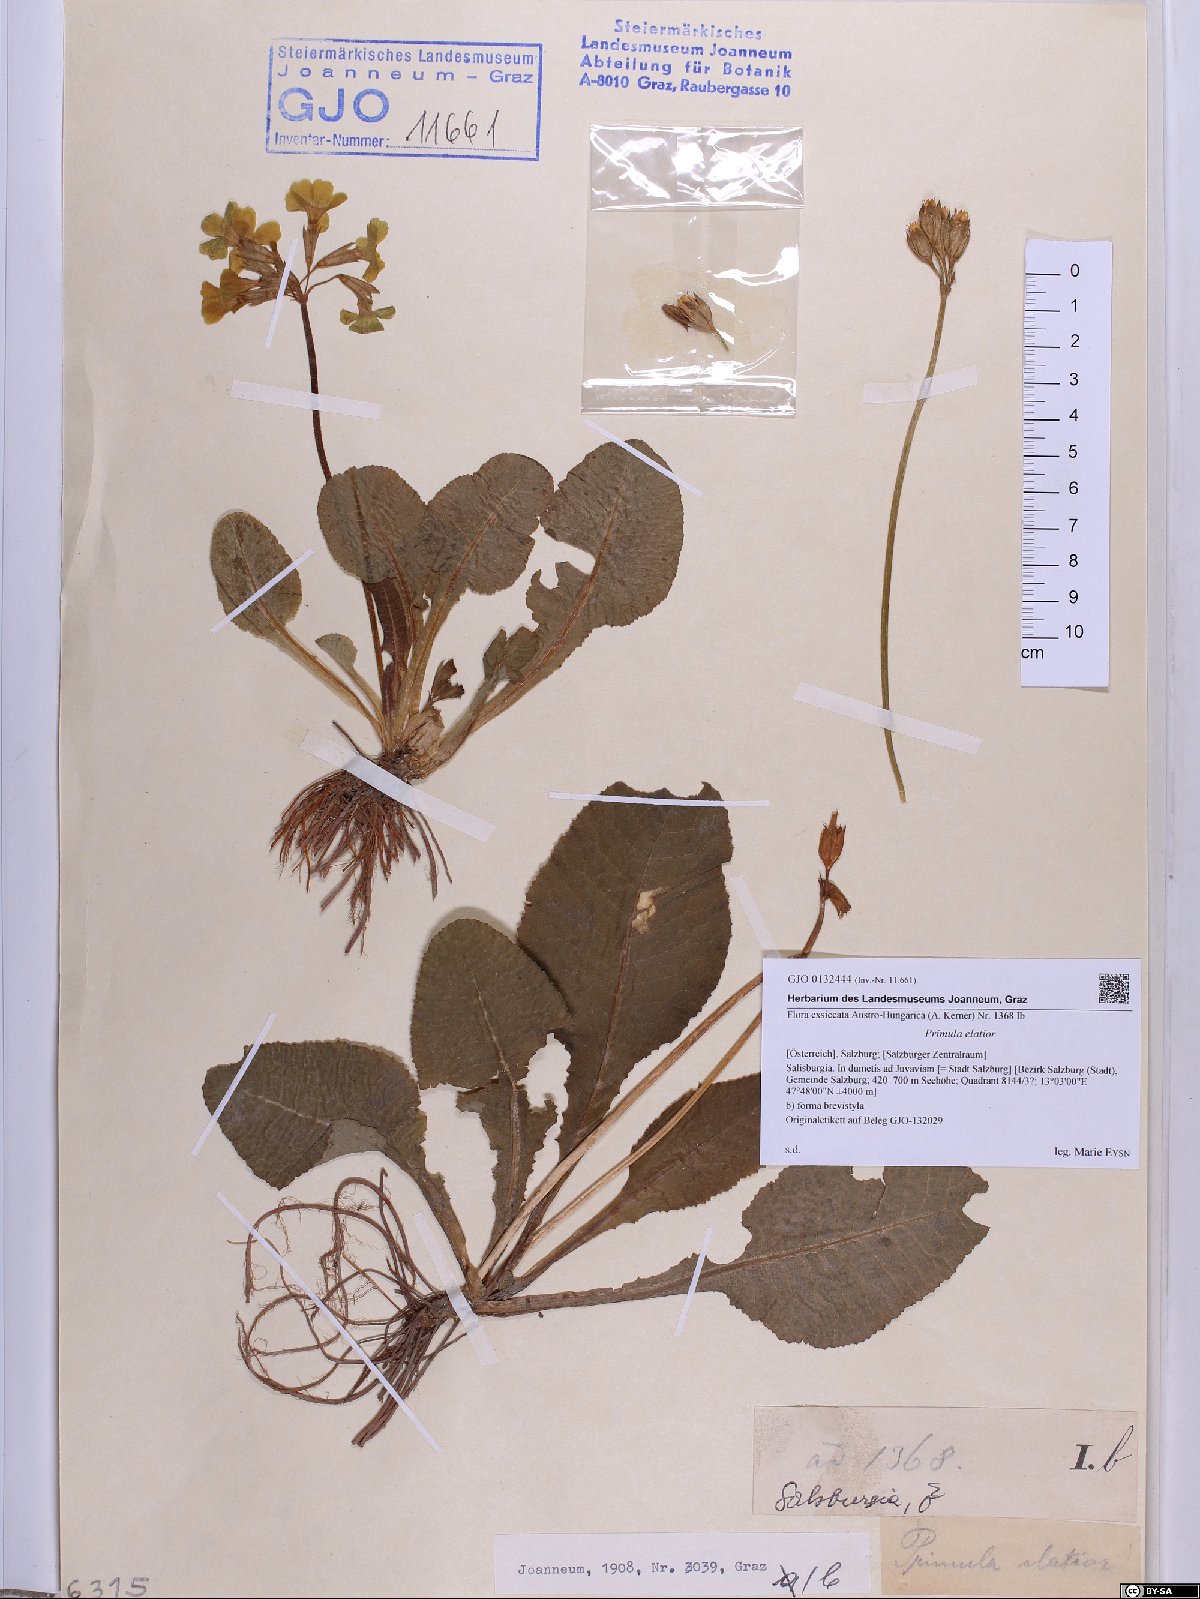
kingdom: Plantae
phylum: Tracheophyta
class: Magnoliopsida
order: Ericales
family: Primulaceae
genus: Primula
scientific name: Primula elatior
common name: Oxlip
